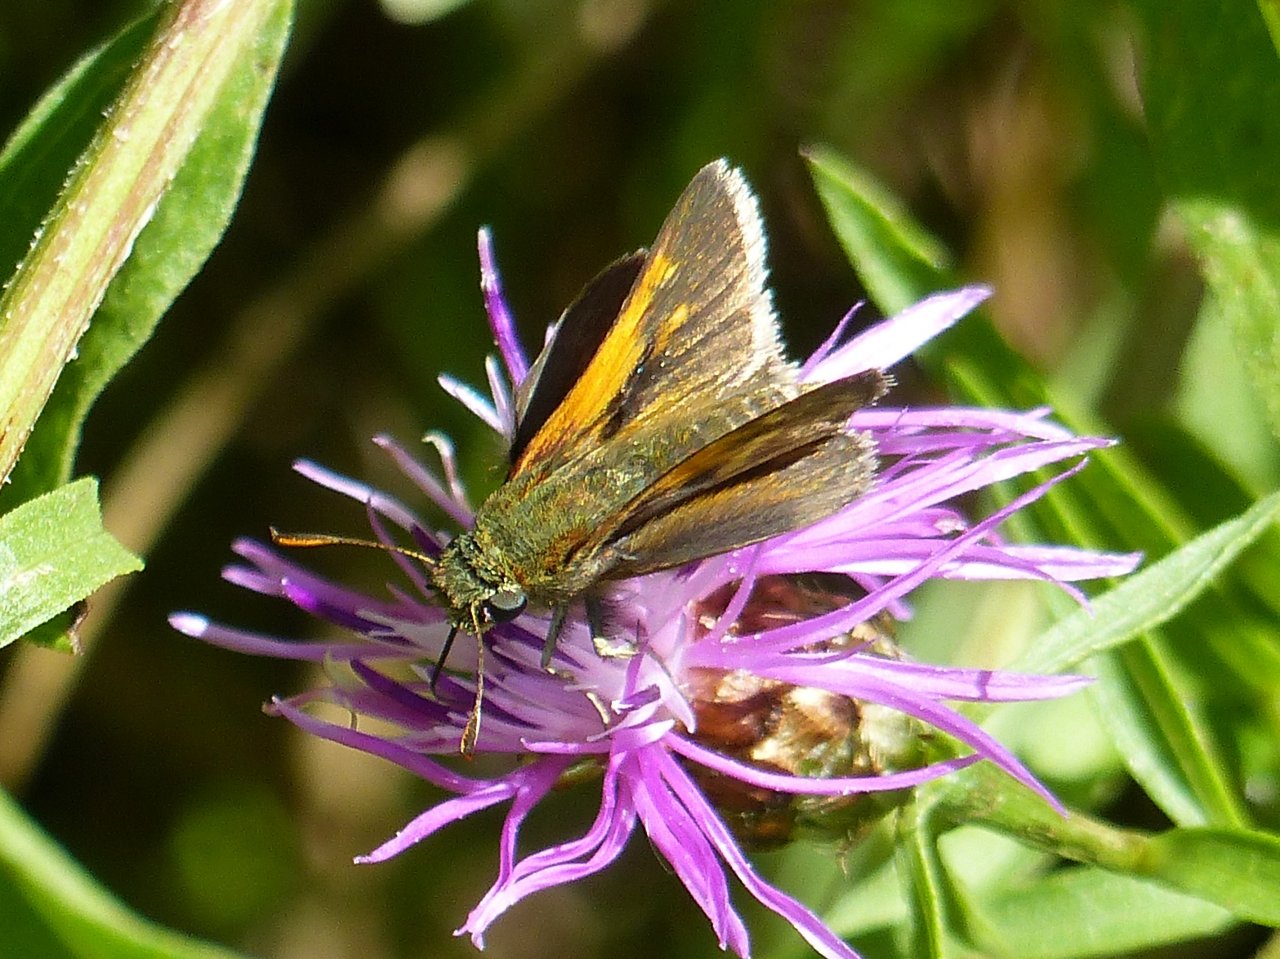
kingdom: Animalia
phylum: Arthropoda
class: Insecta
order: Lepidoptera
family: Hesperiidae
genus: Polites
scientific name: Polites themistocles
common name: Tawny-edged Skipper
